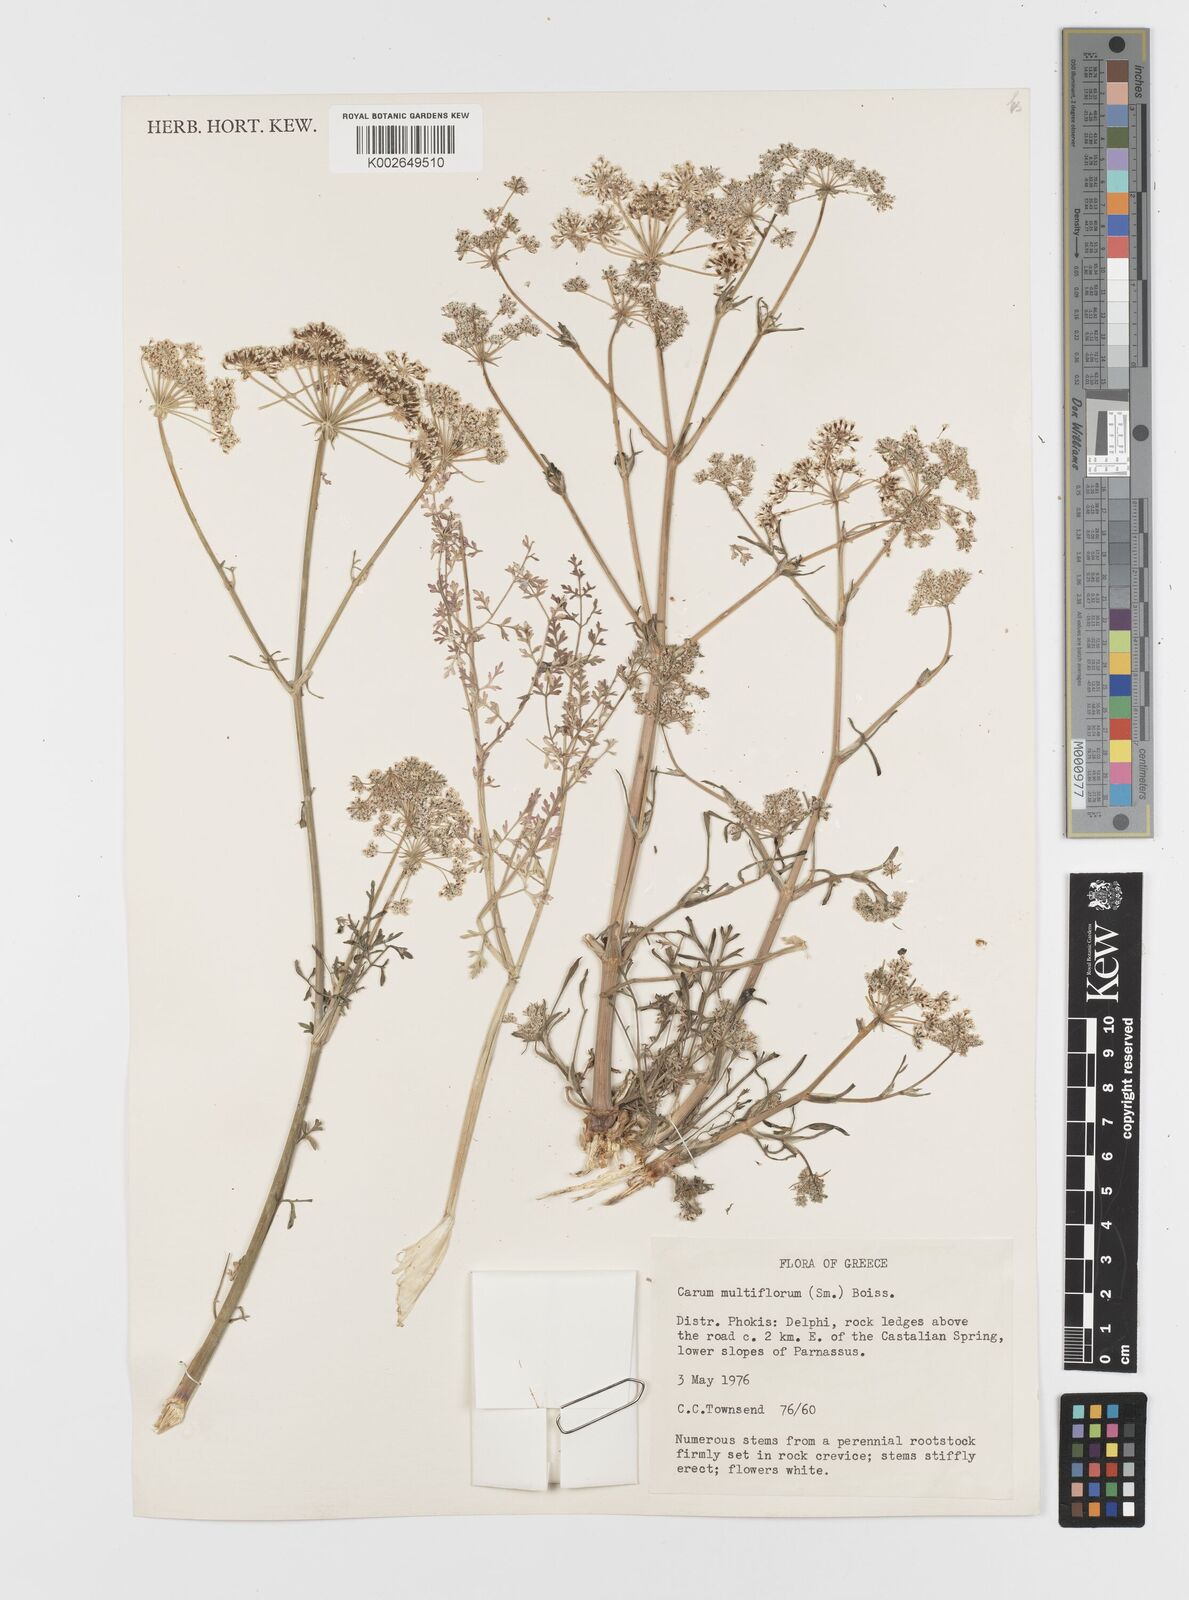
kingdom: Plantae
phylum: Tracheophyta
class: Magnoliopsida
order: Apiales
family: Apiaceae
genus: Hellenocarum
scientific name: Hellenocarum multiflorum
